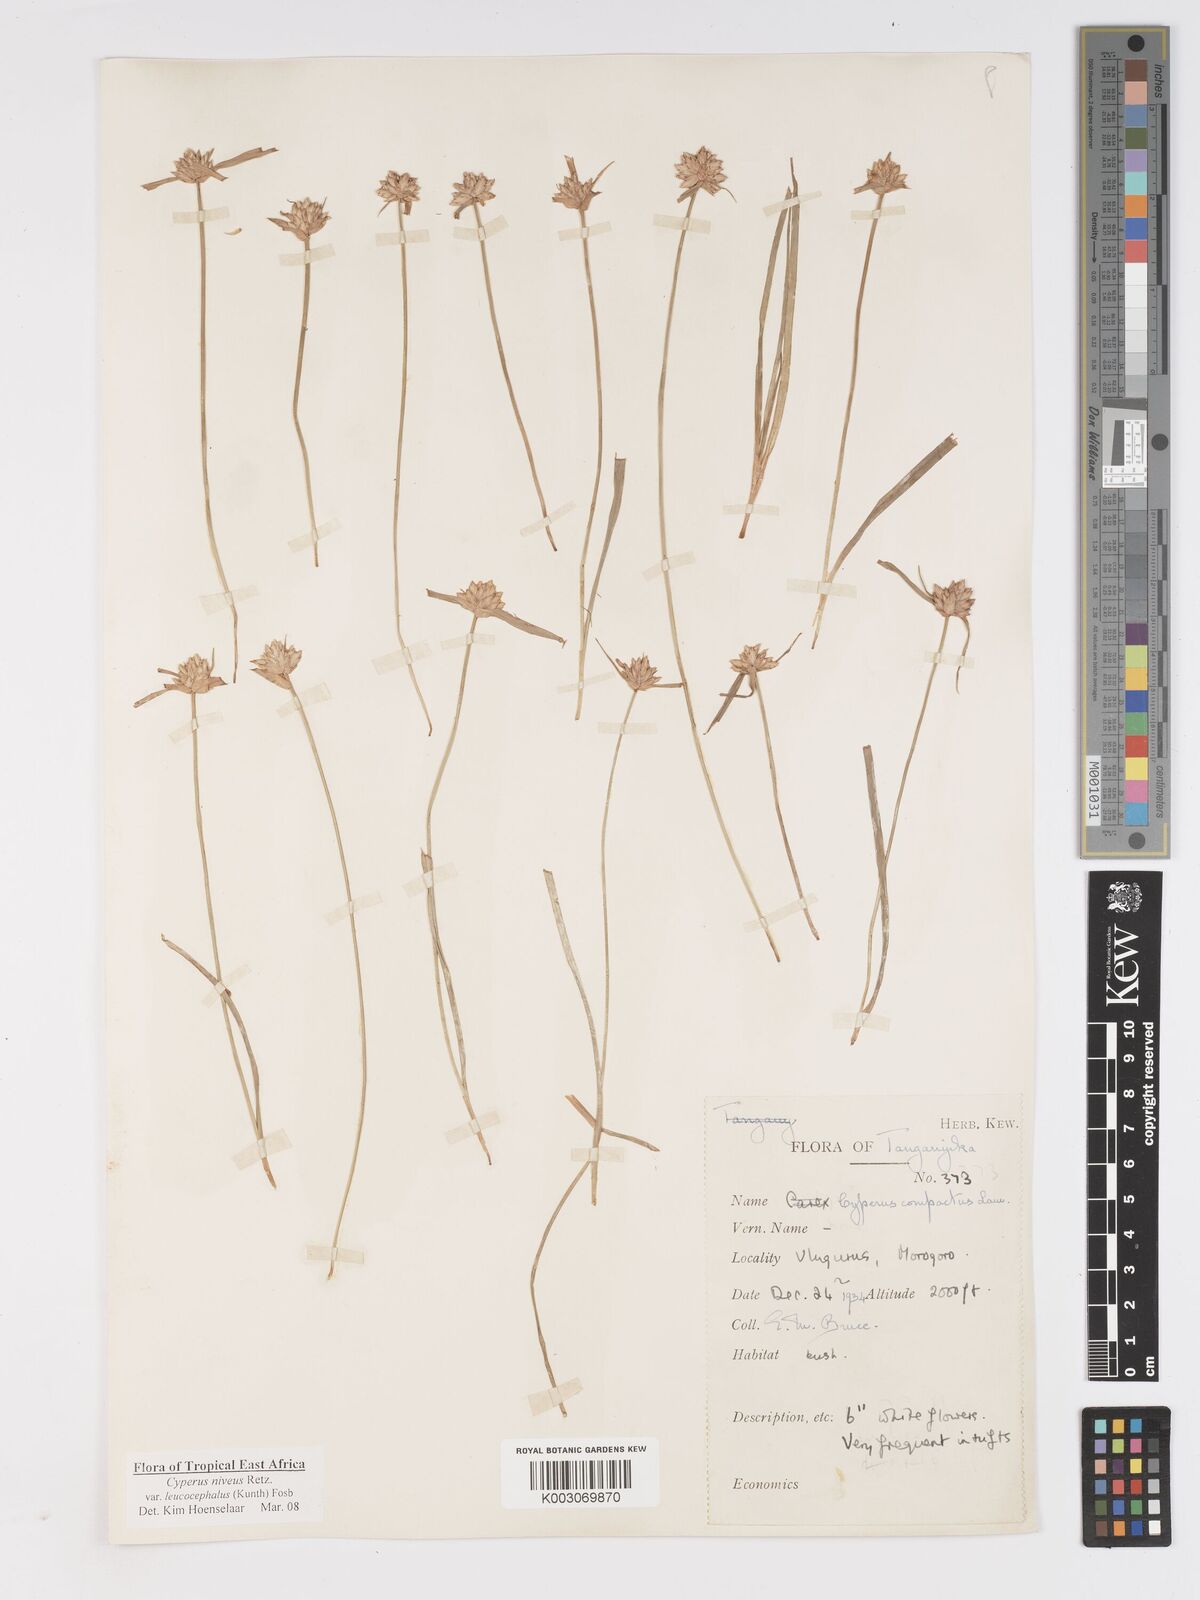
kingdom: Plantae
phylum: Tracheophyta
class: Liliopsida
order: Poales
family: Cyperaceae
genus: Cyperus
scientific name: Cyperus niveus
